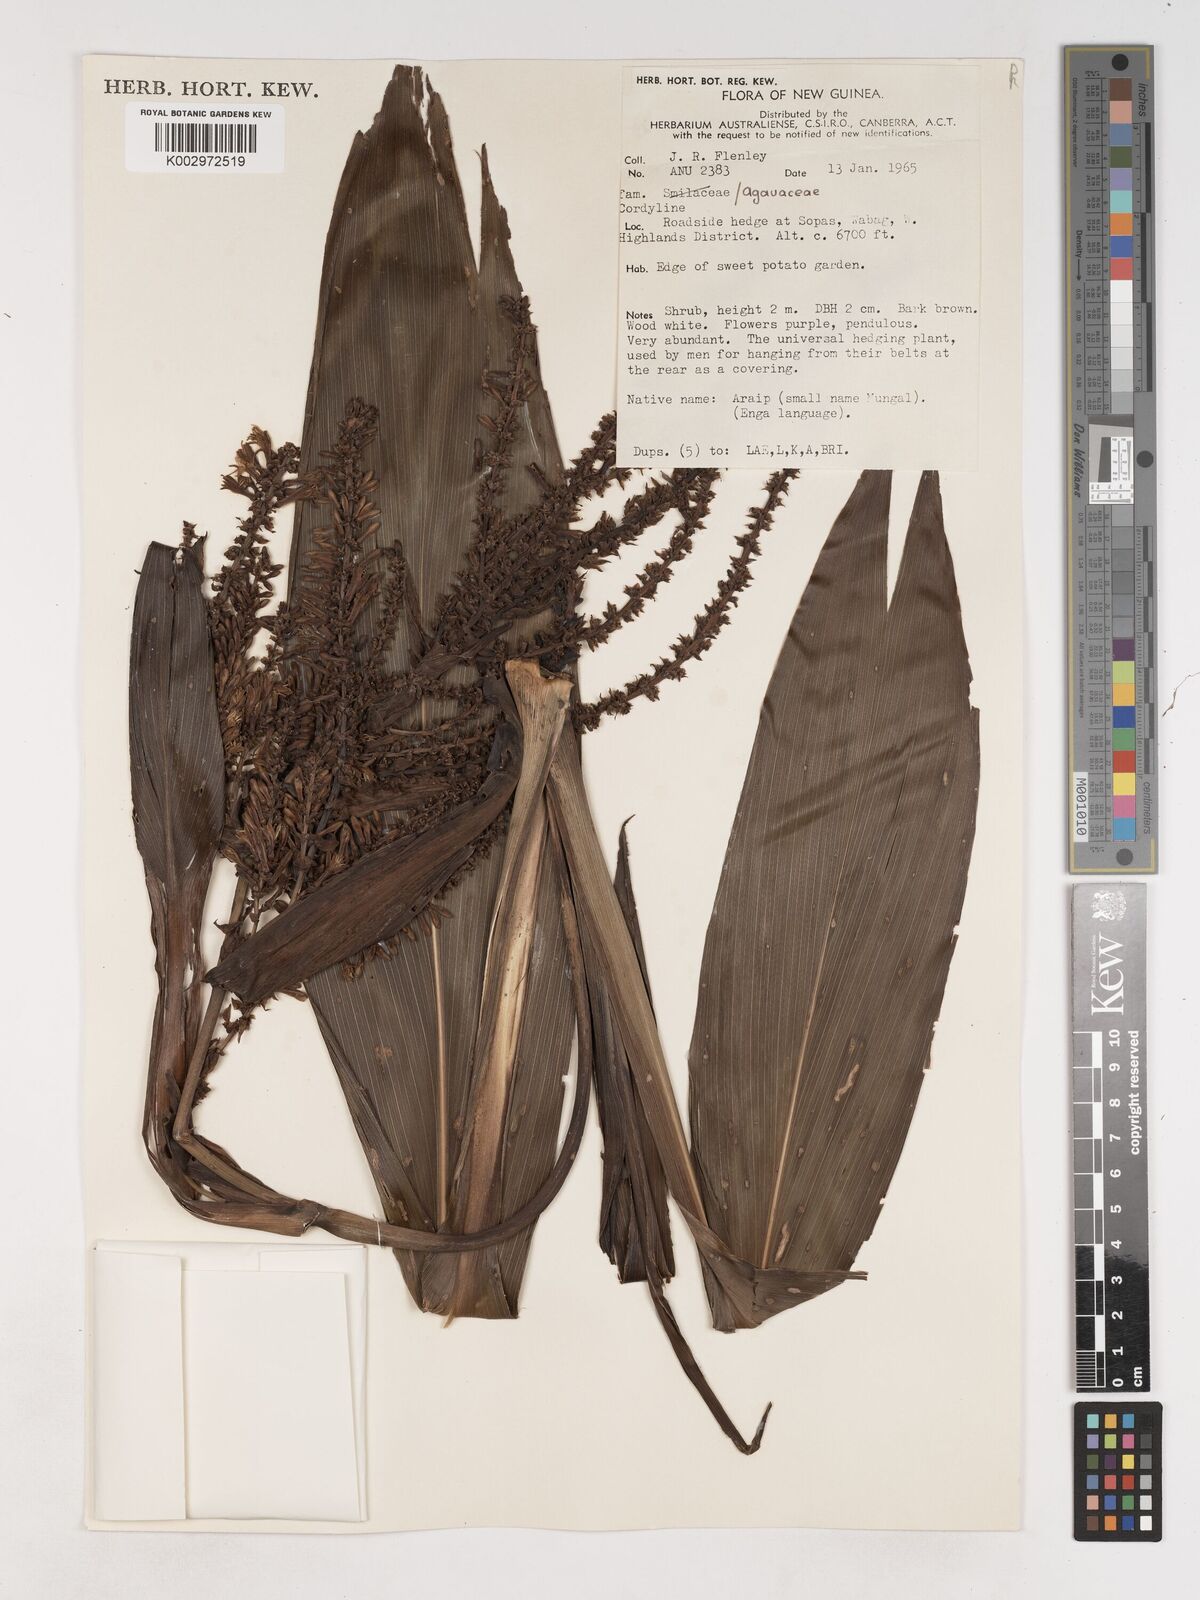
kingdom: Plantae
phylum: Tracheophyta
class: Liliopsida
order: Asparagales
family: Asparagaceae
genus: Cordyline
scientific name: Cordyline
